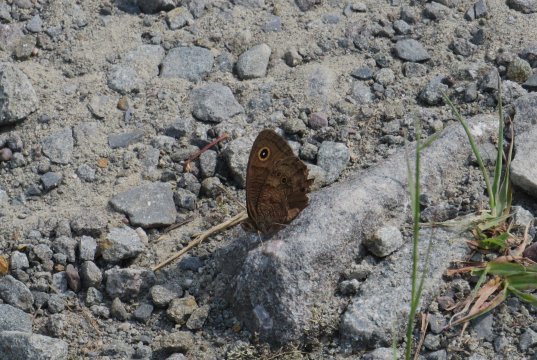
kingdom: Animalia
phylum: Arthropoda
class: Insecta
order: Lepidoptera
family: Nymphalidae
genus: Cercyonis
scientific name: Cercyonis pegala
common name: Common Wood-Nymph
